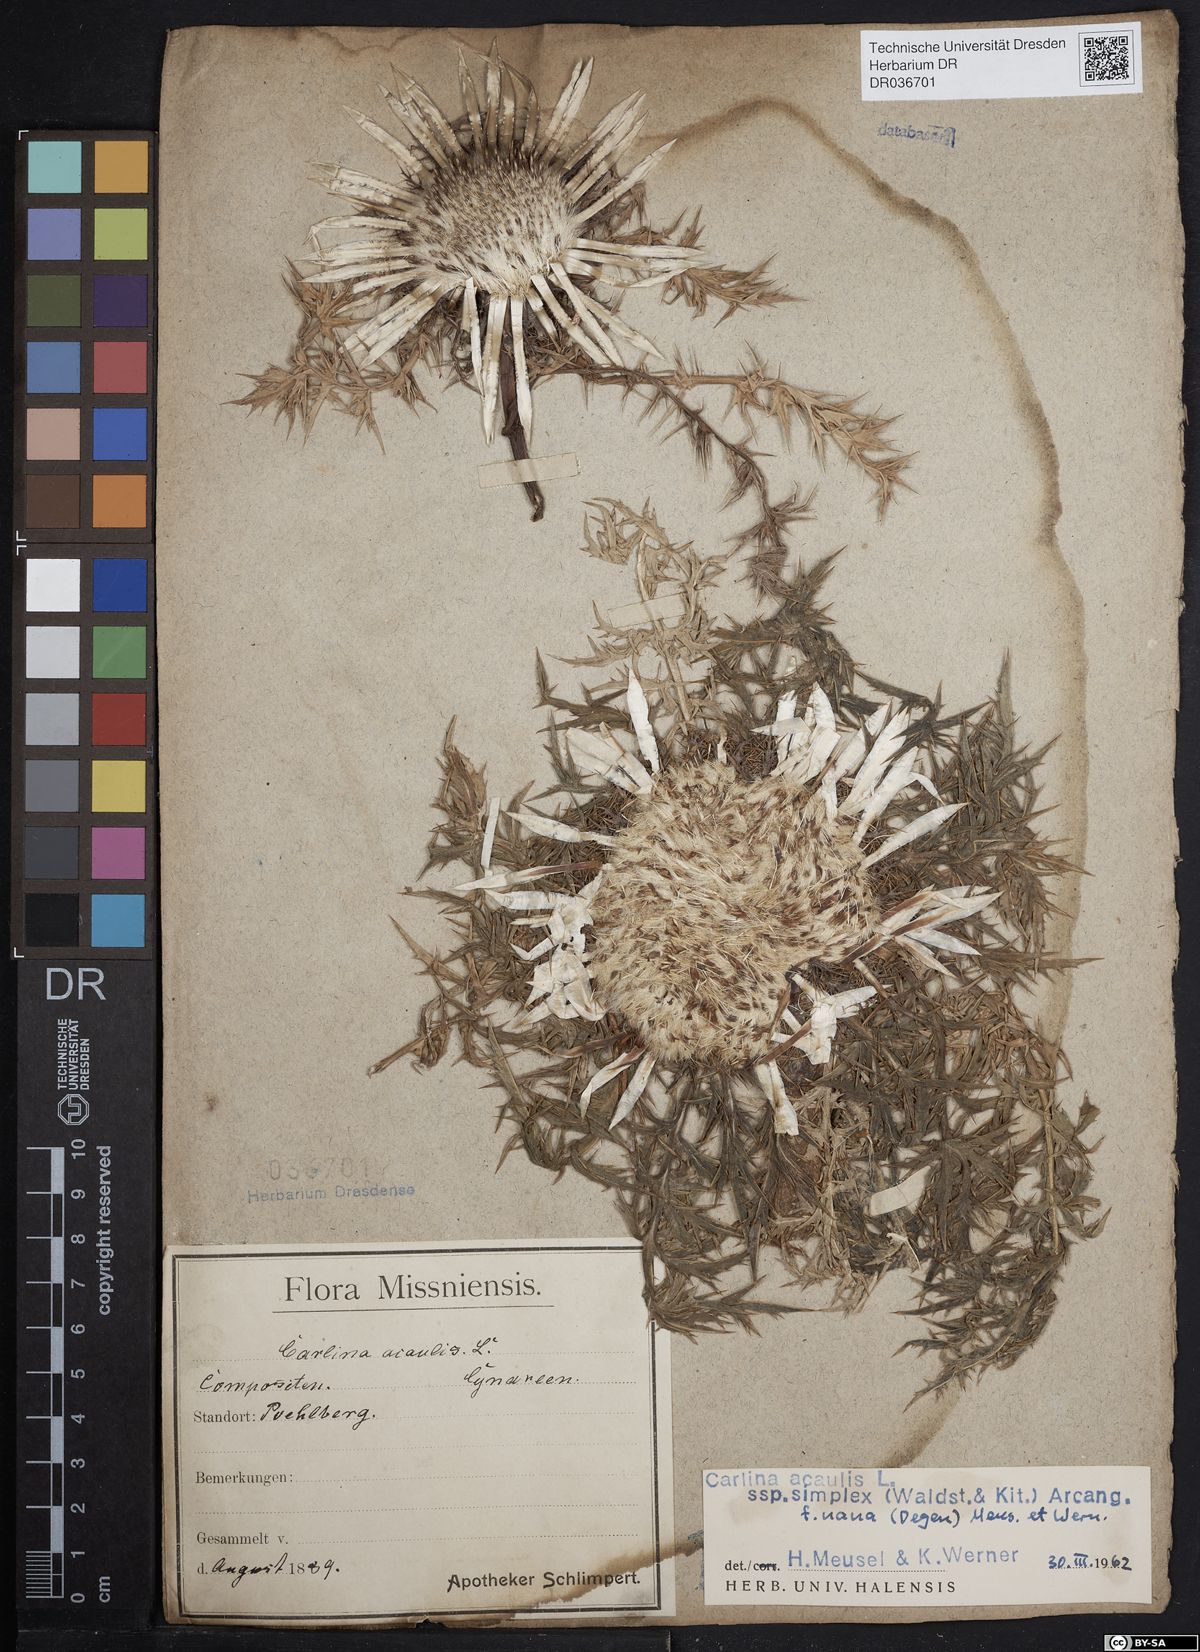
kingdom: Plantae
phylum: Tracheophyta
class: Magnoliopsida
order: Asterales
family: Asteraceae
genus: Carlina
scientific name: Carlina acaulis
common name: Stemless carline thistle
